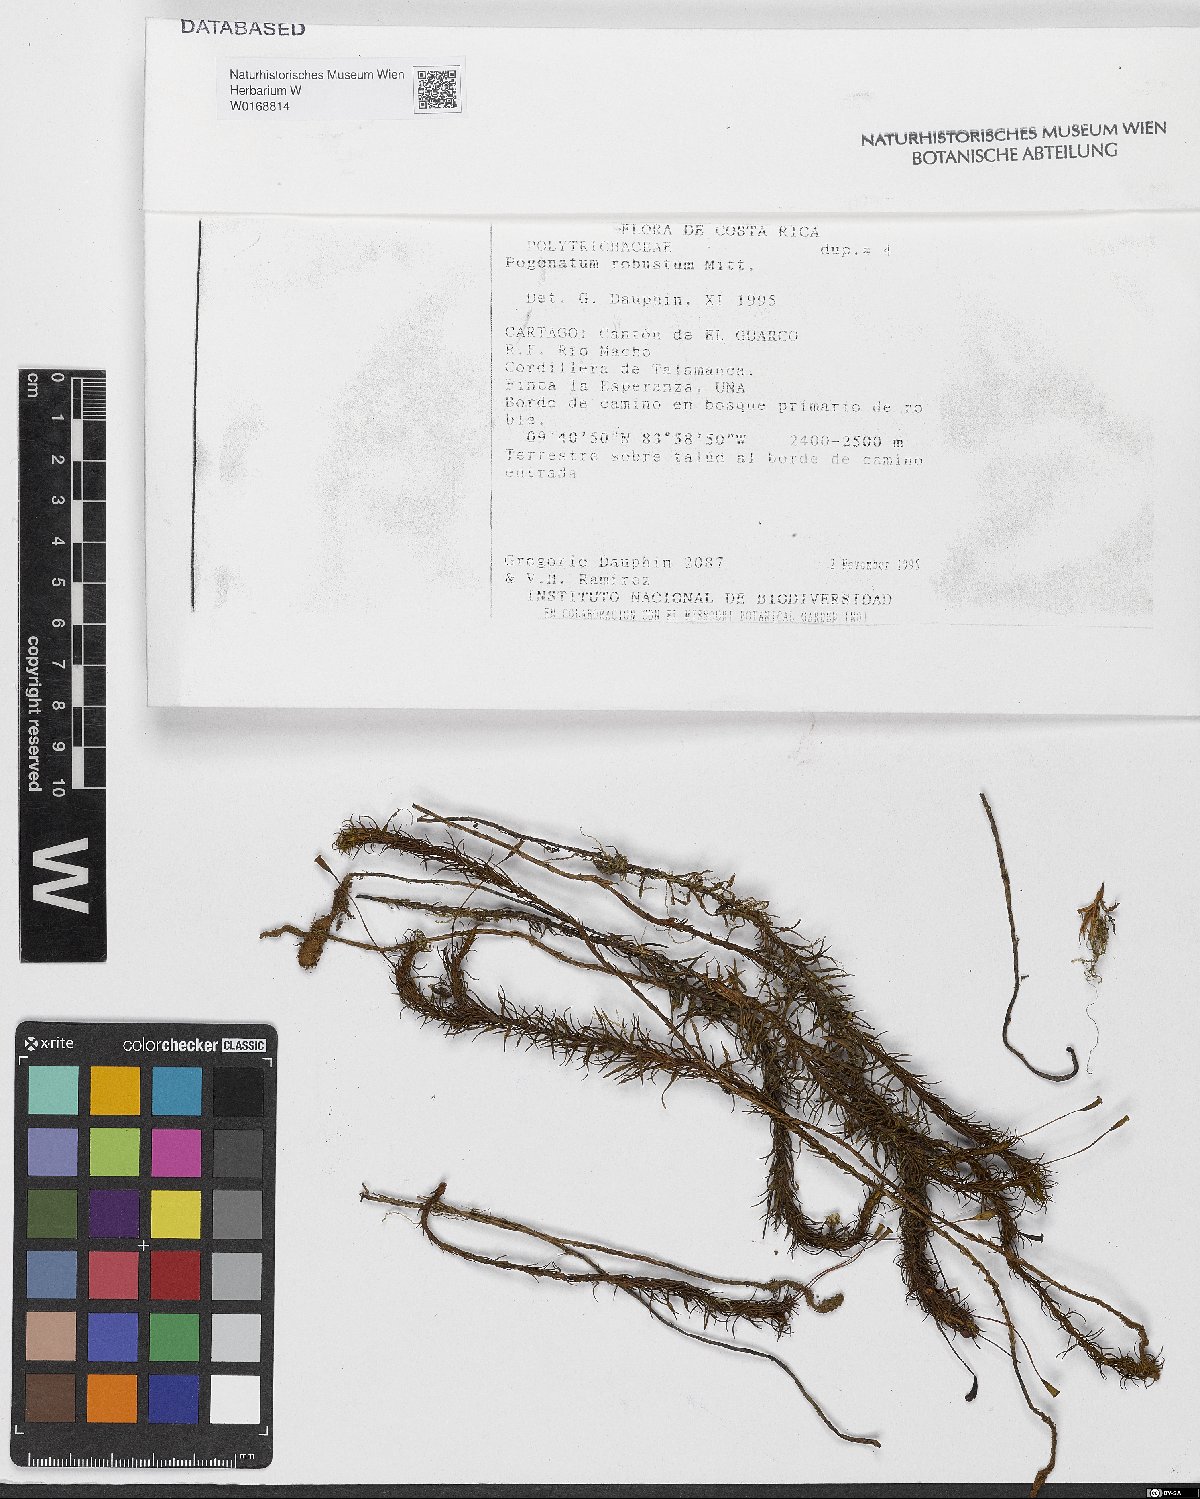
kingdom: Plantae
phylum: Bryophyta
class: Polytrichopsida
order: Polytrichales
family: Polytrichaceae
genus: Pogonatum
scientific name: Pogonatum procerum
